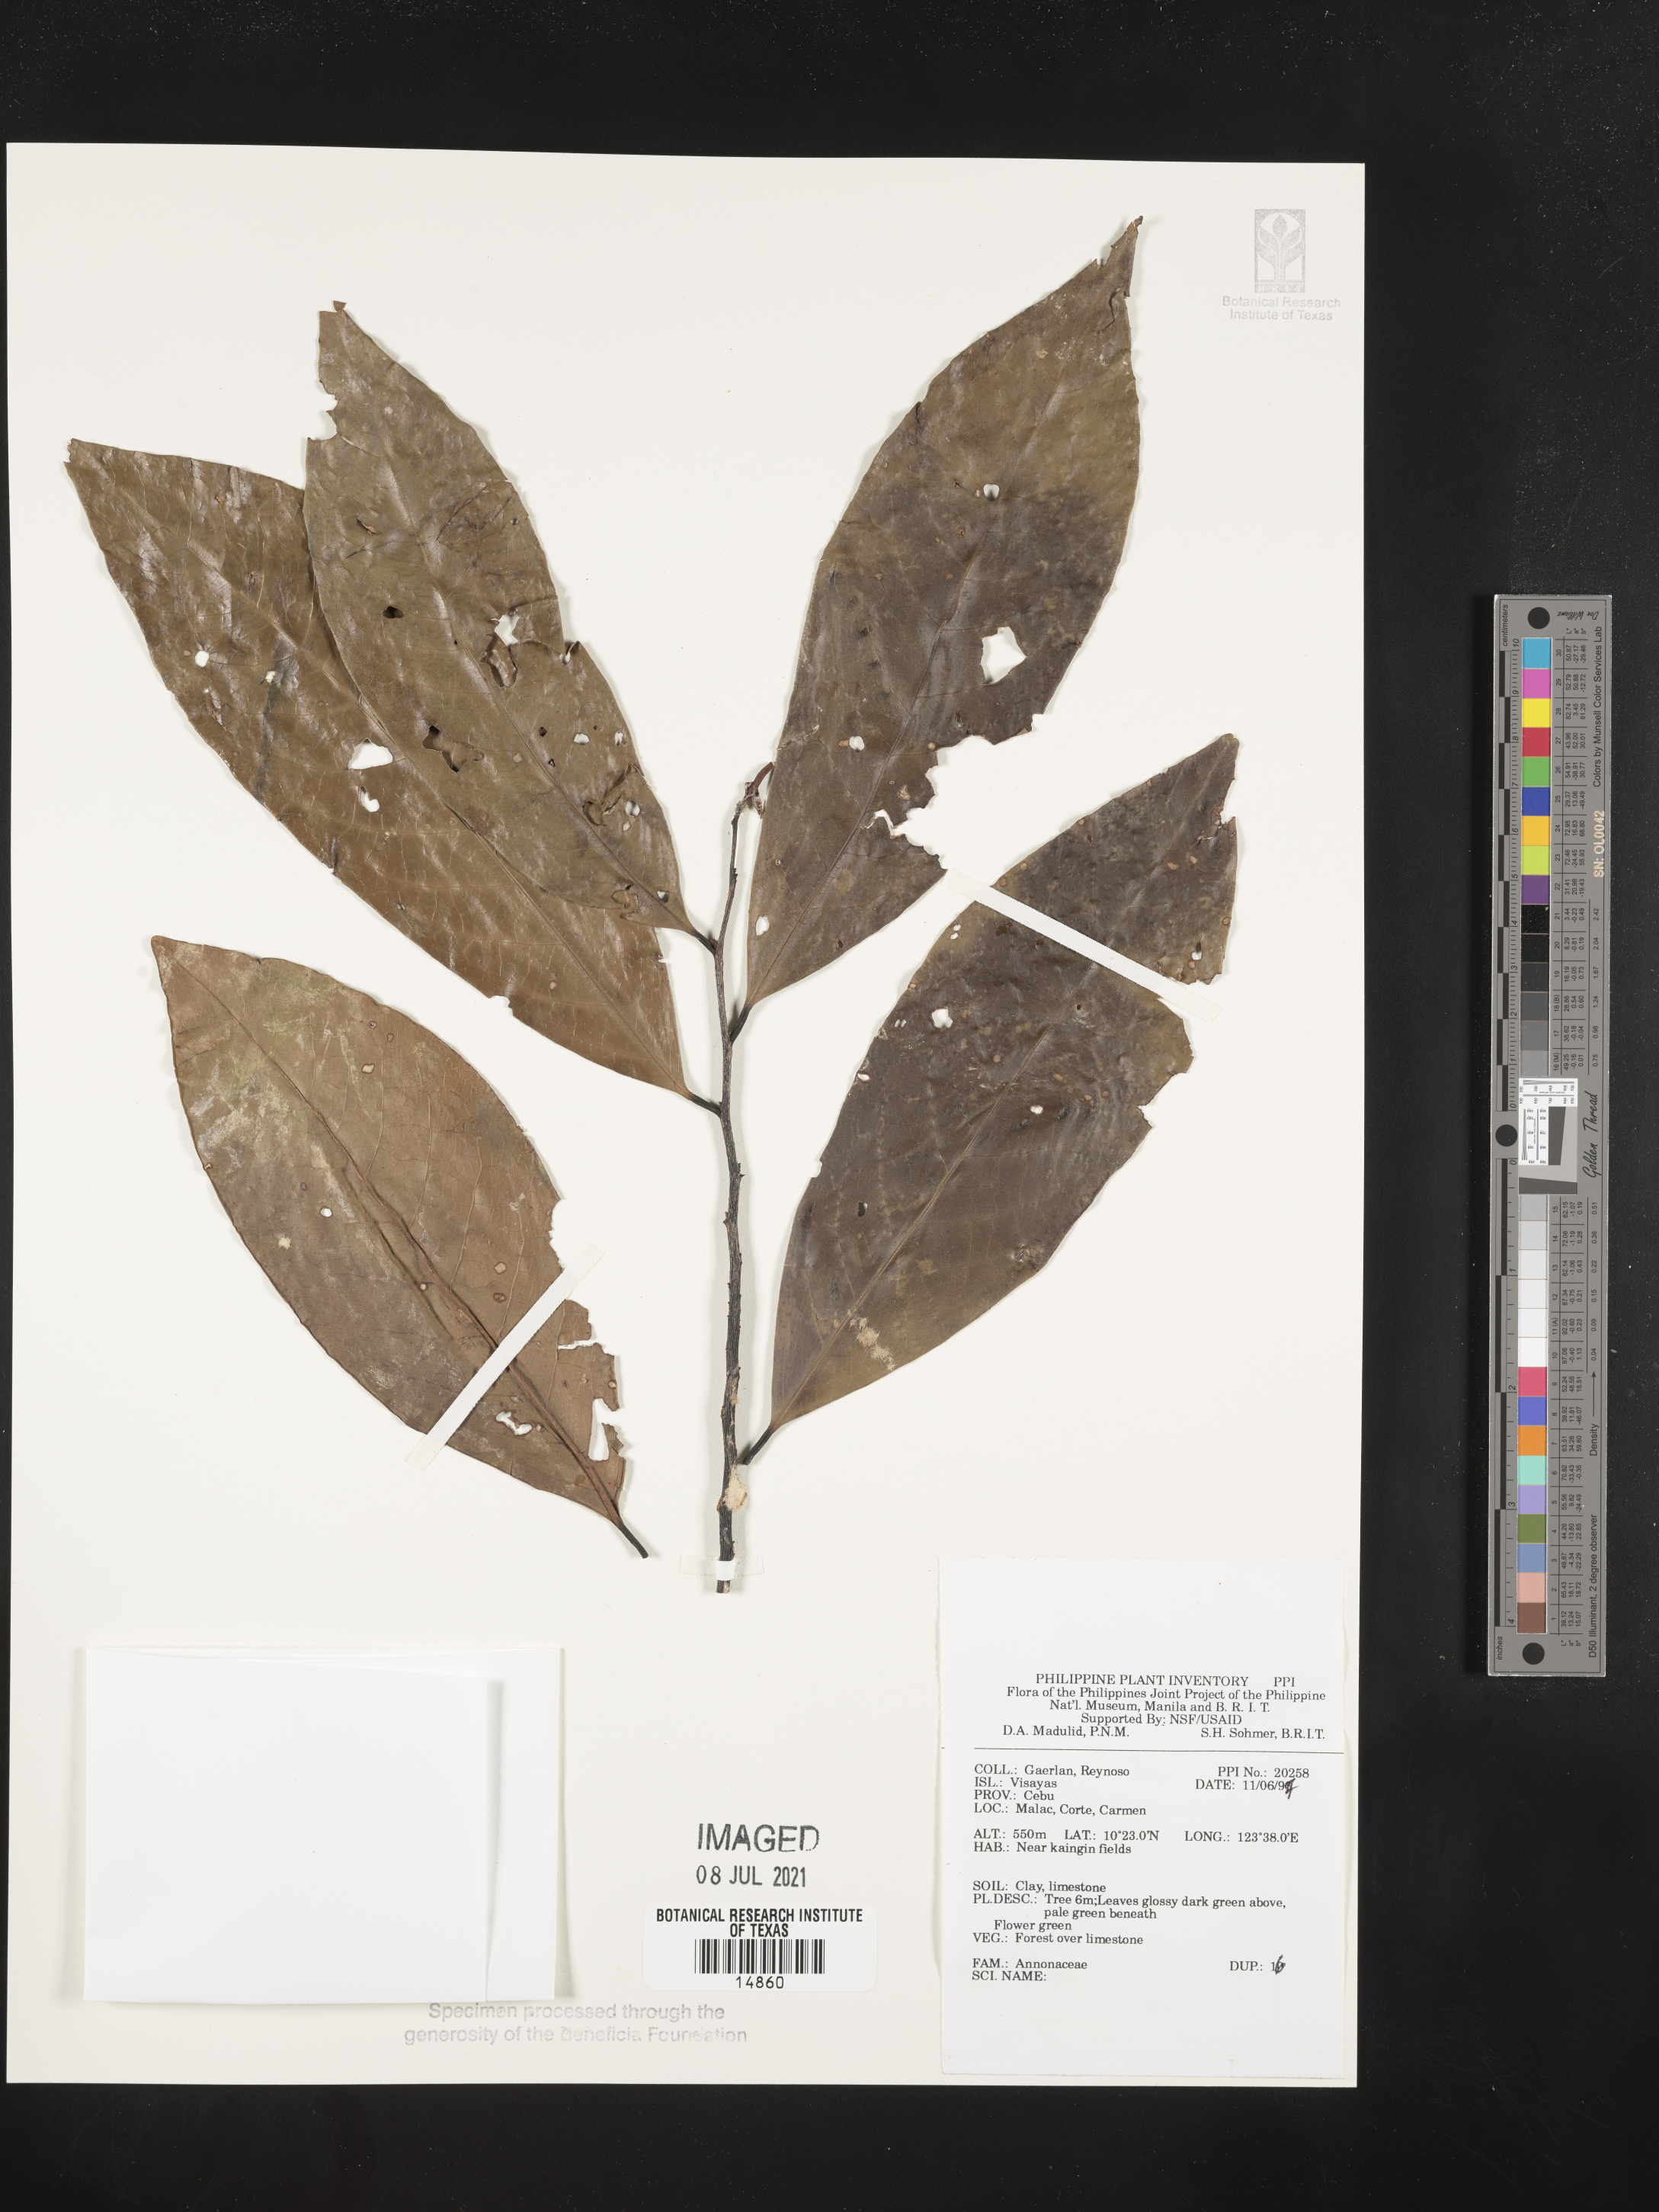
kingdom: Plantae
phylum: Tracheophyta
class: Magnoliopsida
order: Magnoliales
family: Annonaceae
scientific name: Annonaceae
